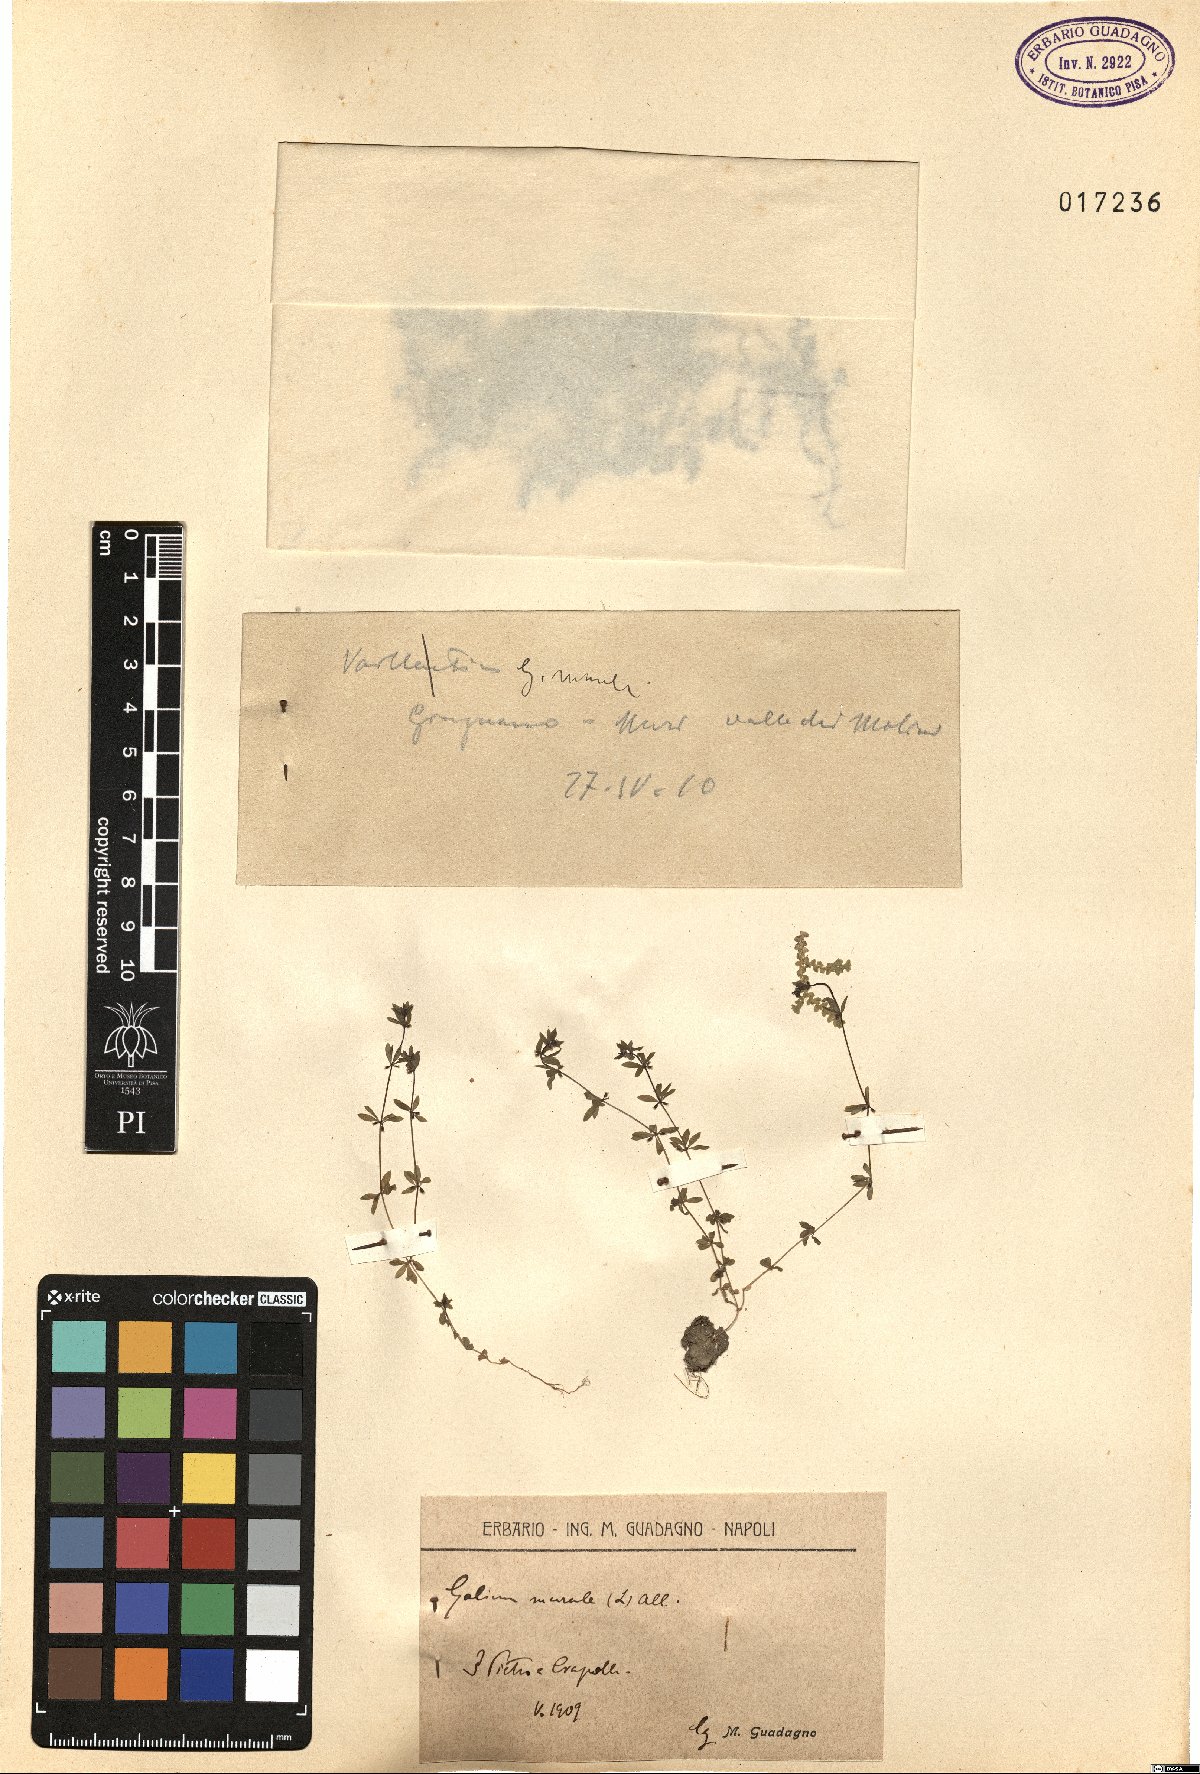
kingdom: Plantae
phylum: Tracheophyta
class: Magnoliopsida
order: Gentianales
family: Rubiaceae
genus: Galium
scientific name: Galium murale
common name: Yellow wall bedstraw
